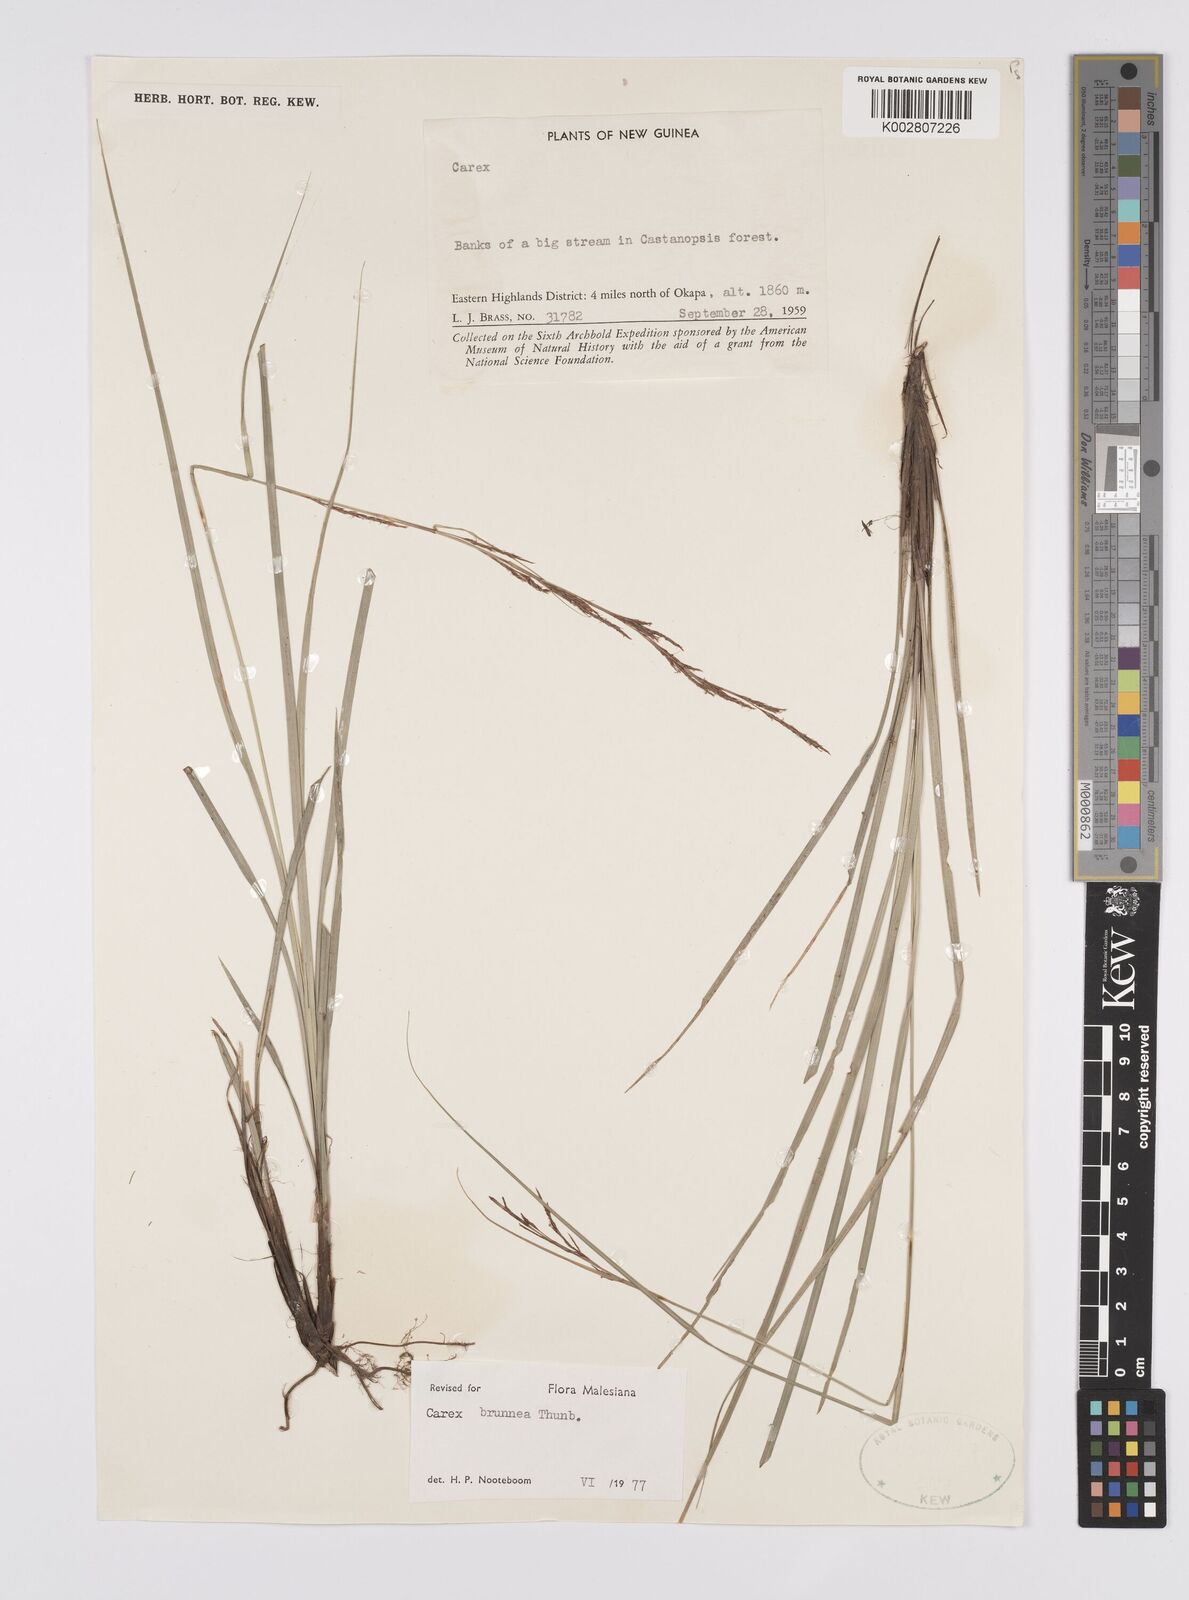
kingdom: Plantae
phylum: Tracheophyta
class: Liliopsida
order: Poales
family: Cyperaceae
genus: Carex
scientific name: Carex brunnea
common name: Greater brown sedge
